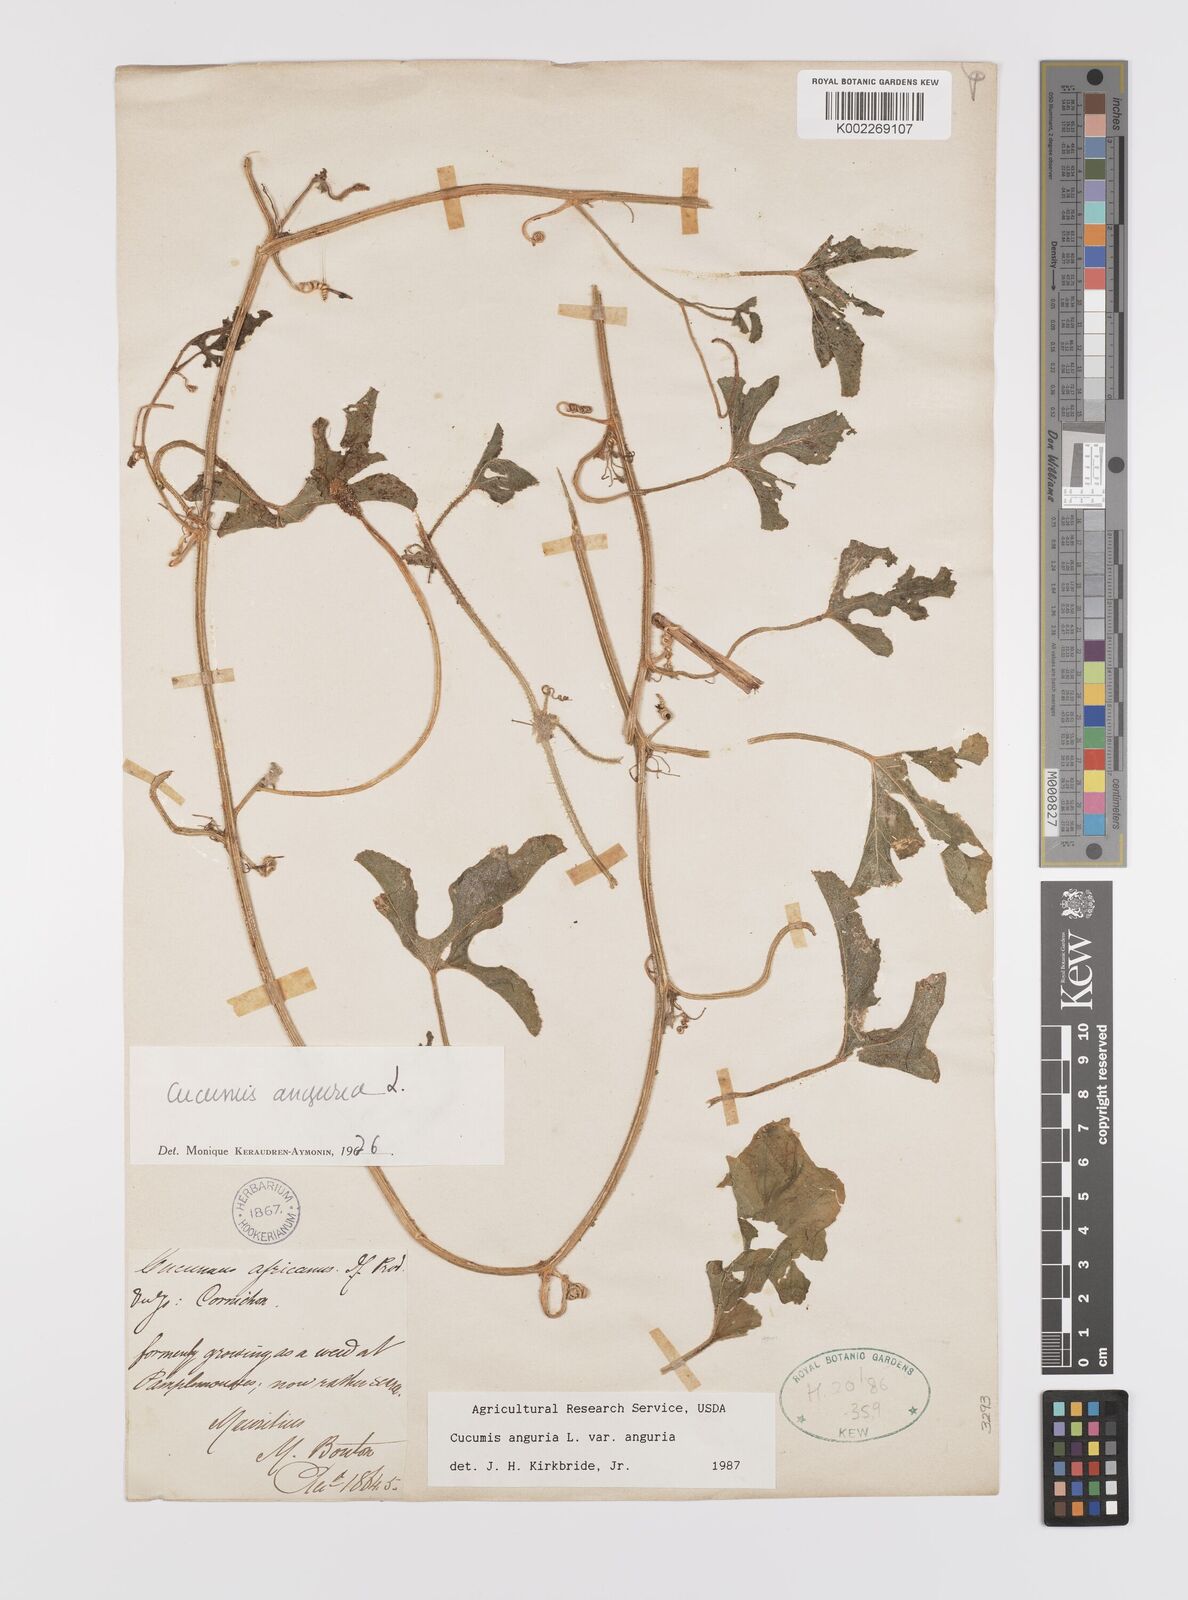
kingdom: Plantae
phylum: Tracheophyta
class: Magnoliopsida
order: Cucurbitales
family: Cucurbitaceae
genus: Cucumis
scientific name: Cucumis anguria
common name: West indian gherkin
